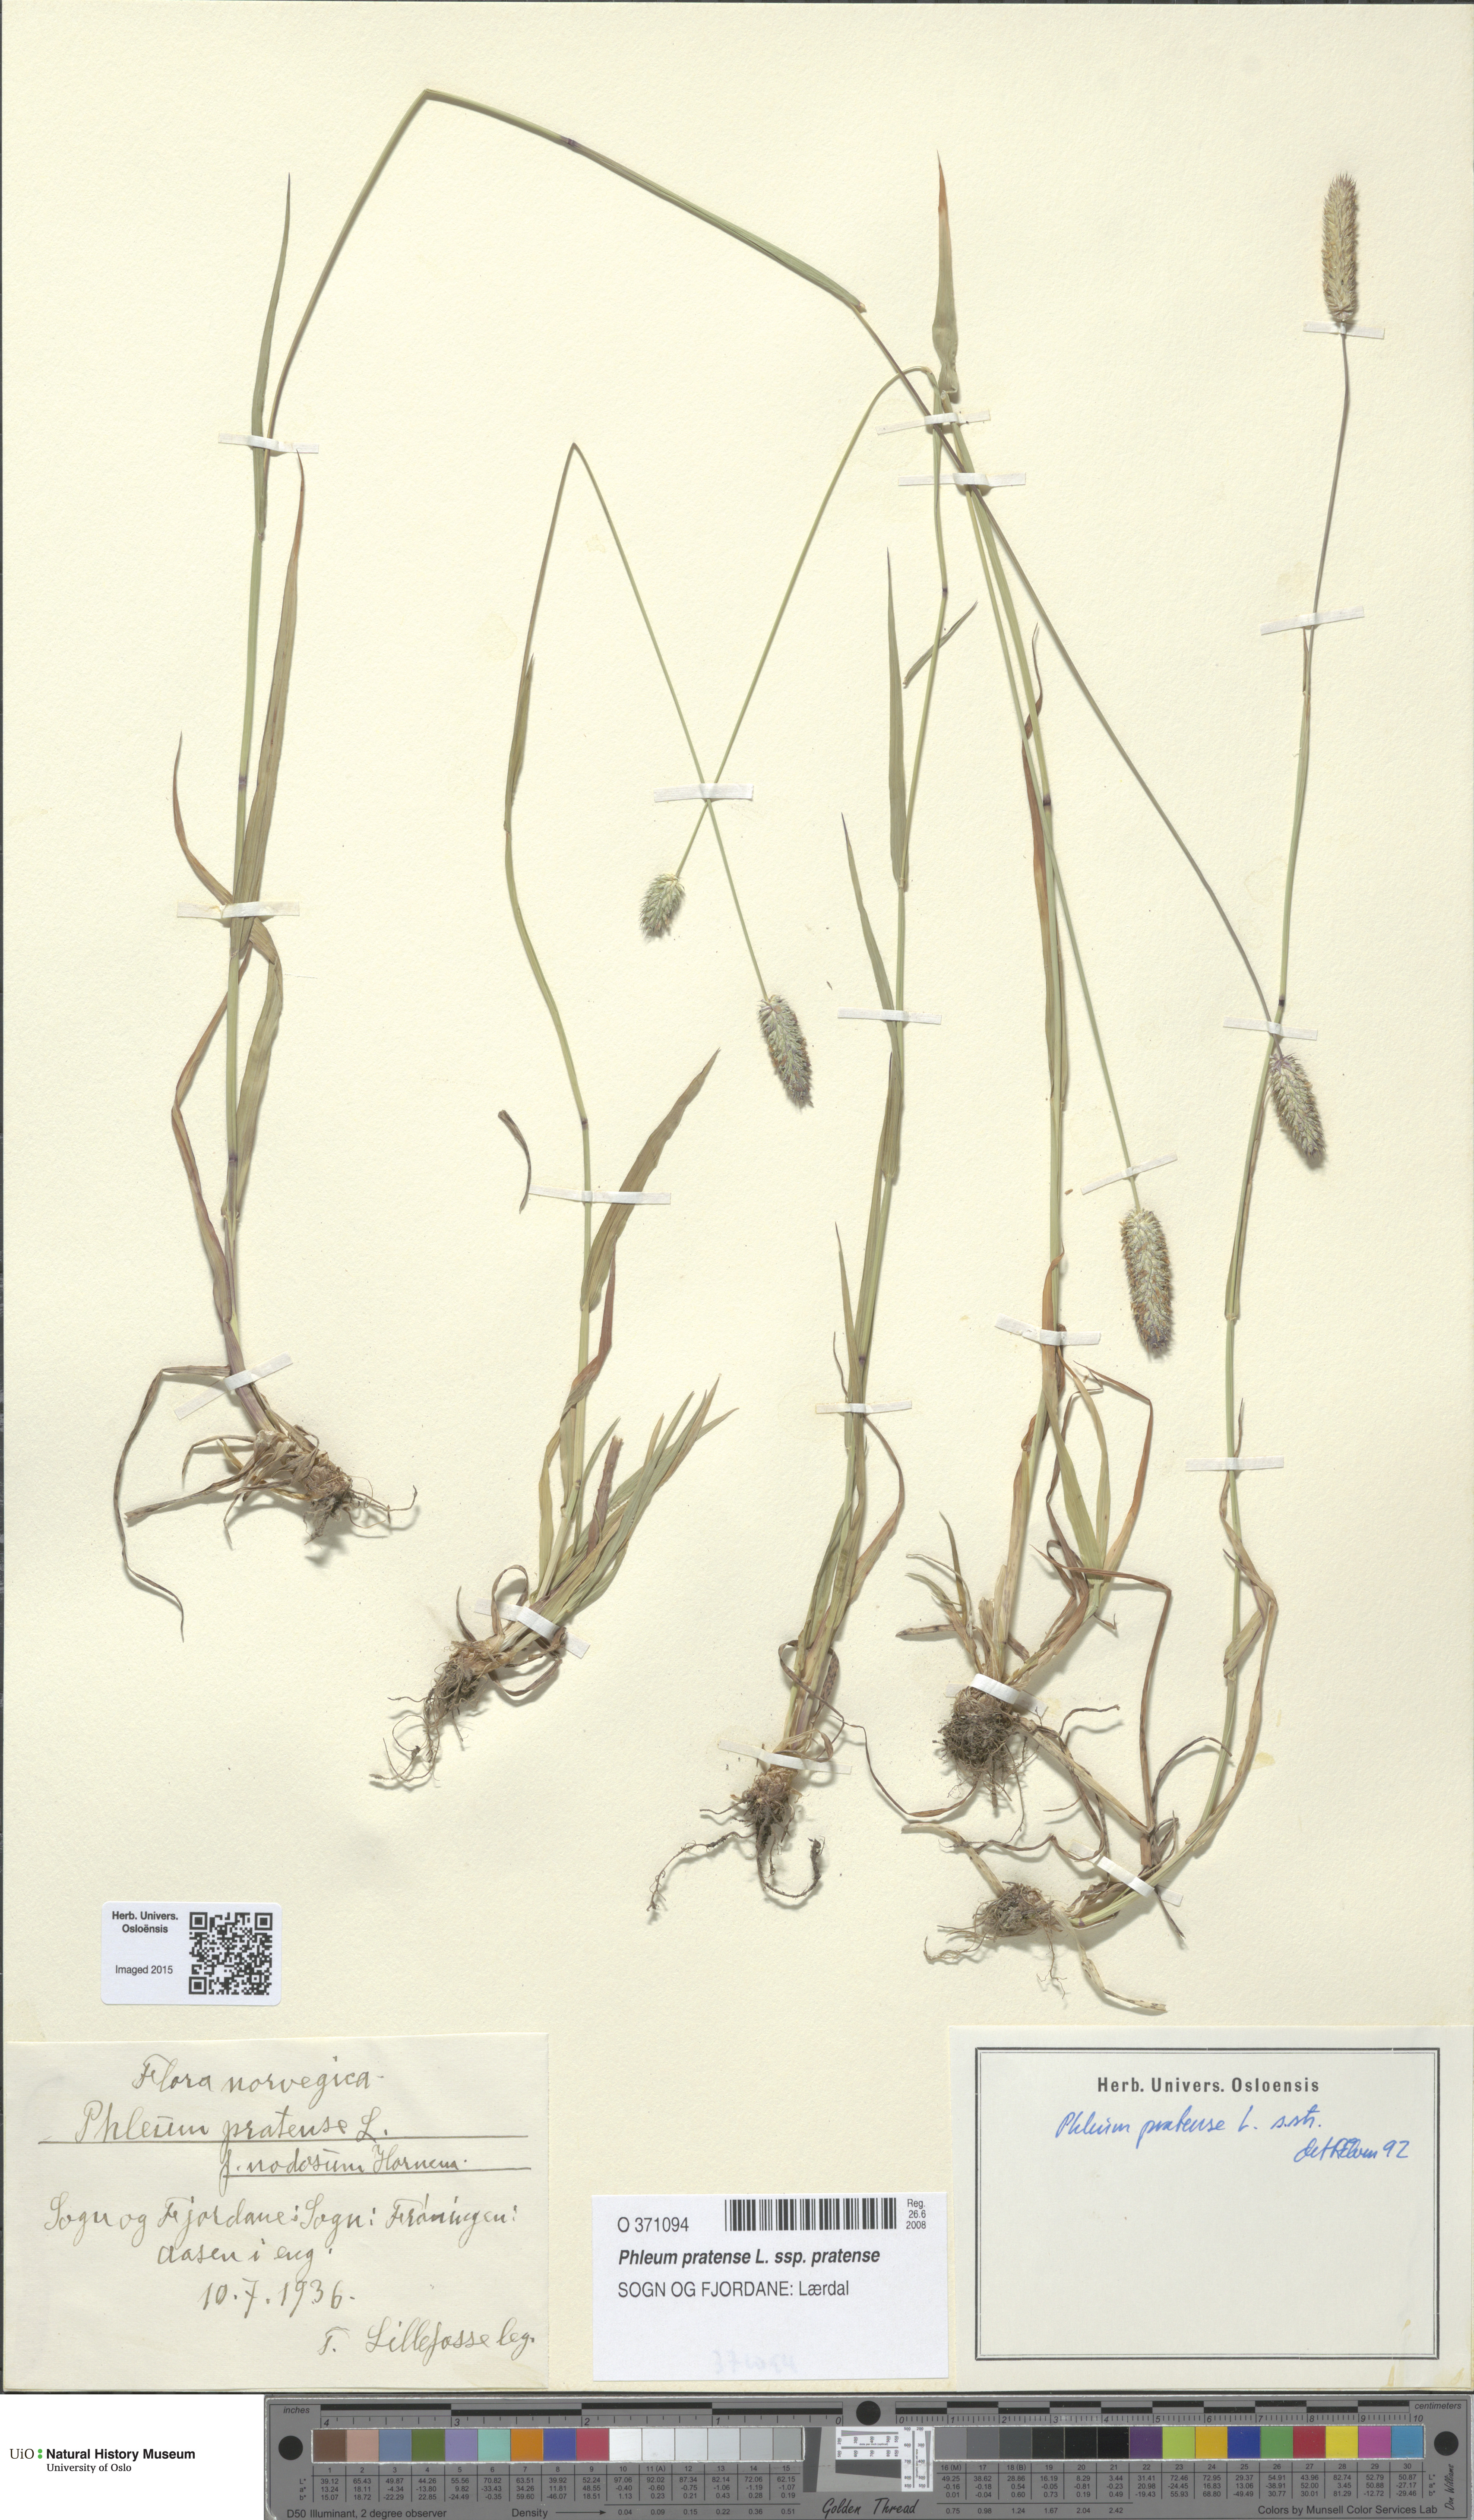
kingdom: Plantae
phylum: Tracheophyta
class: Liliopsida
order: Poales
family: Poaceae
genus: Phleum
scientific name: Phleum pratense
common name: Timothy grass
